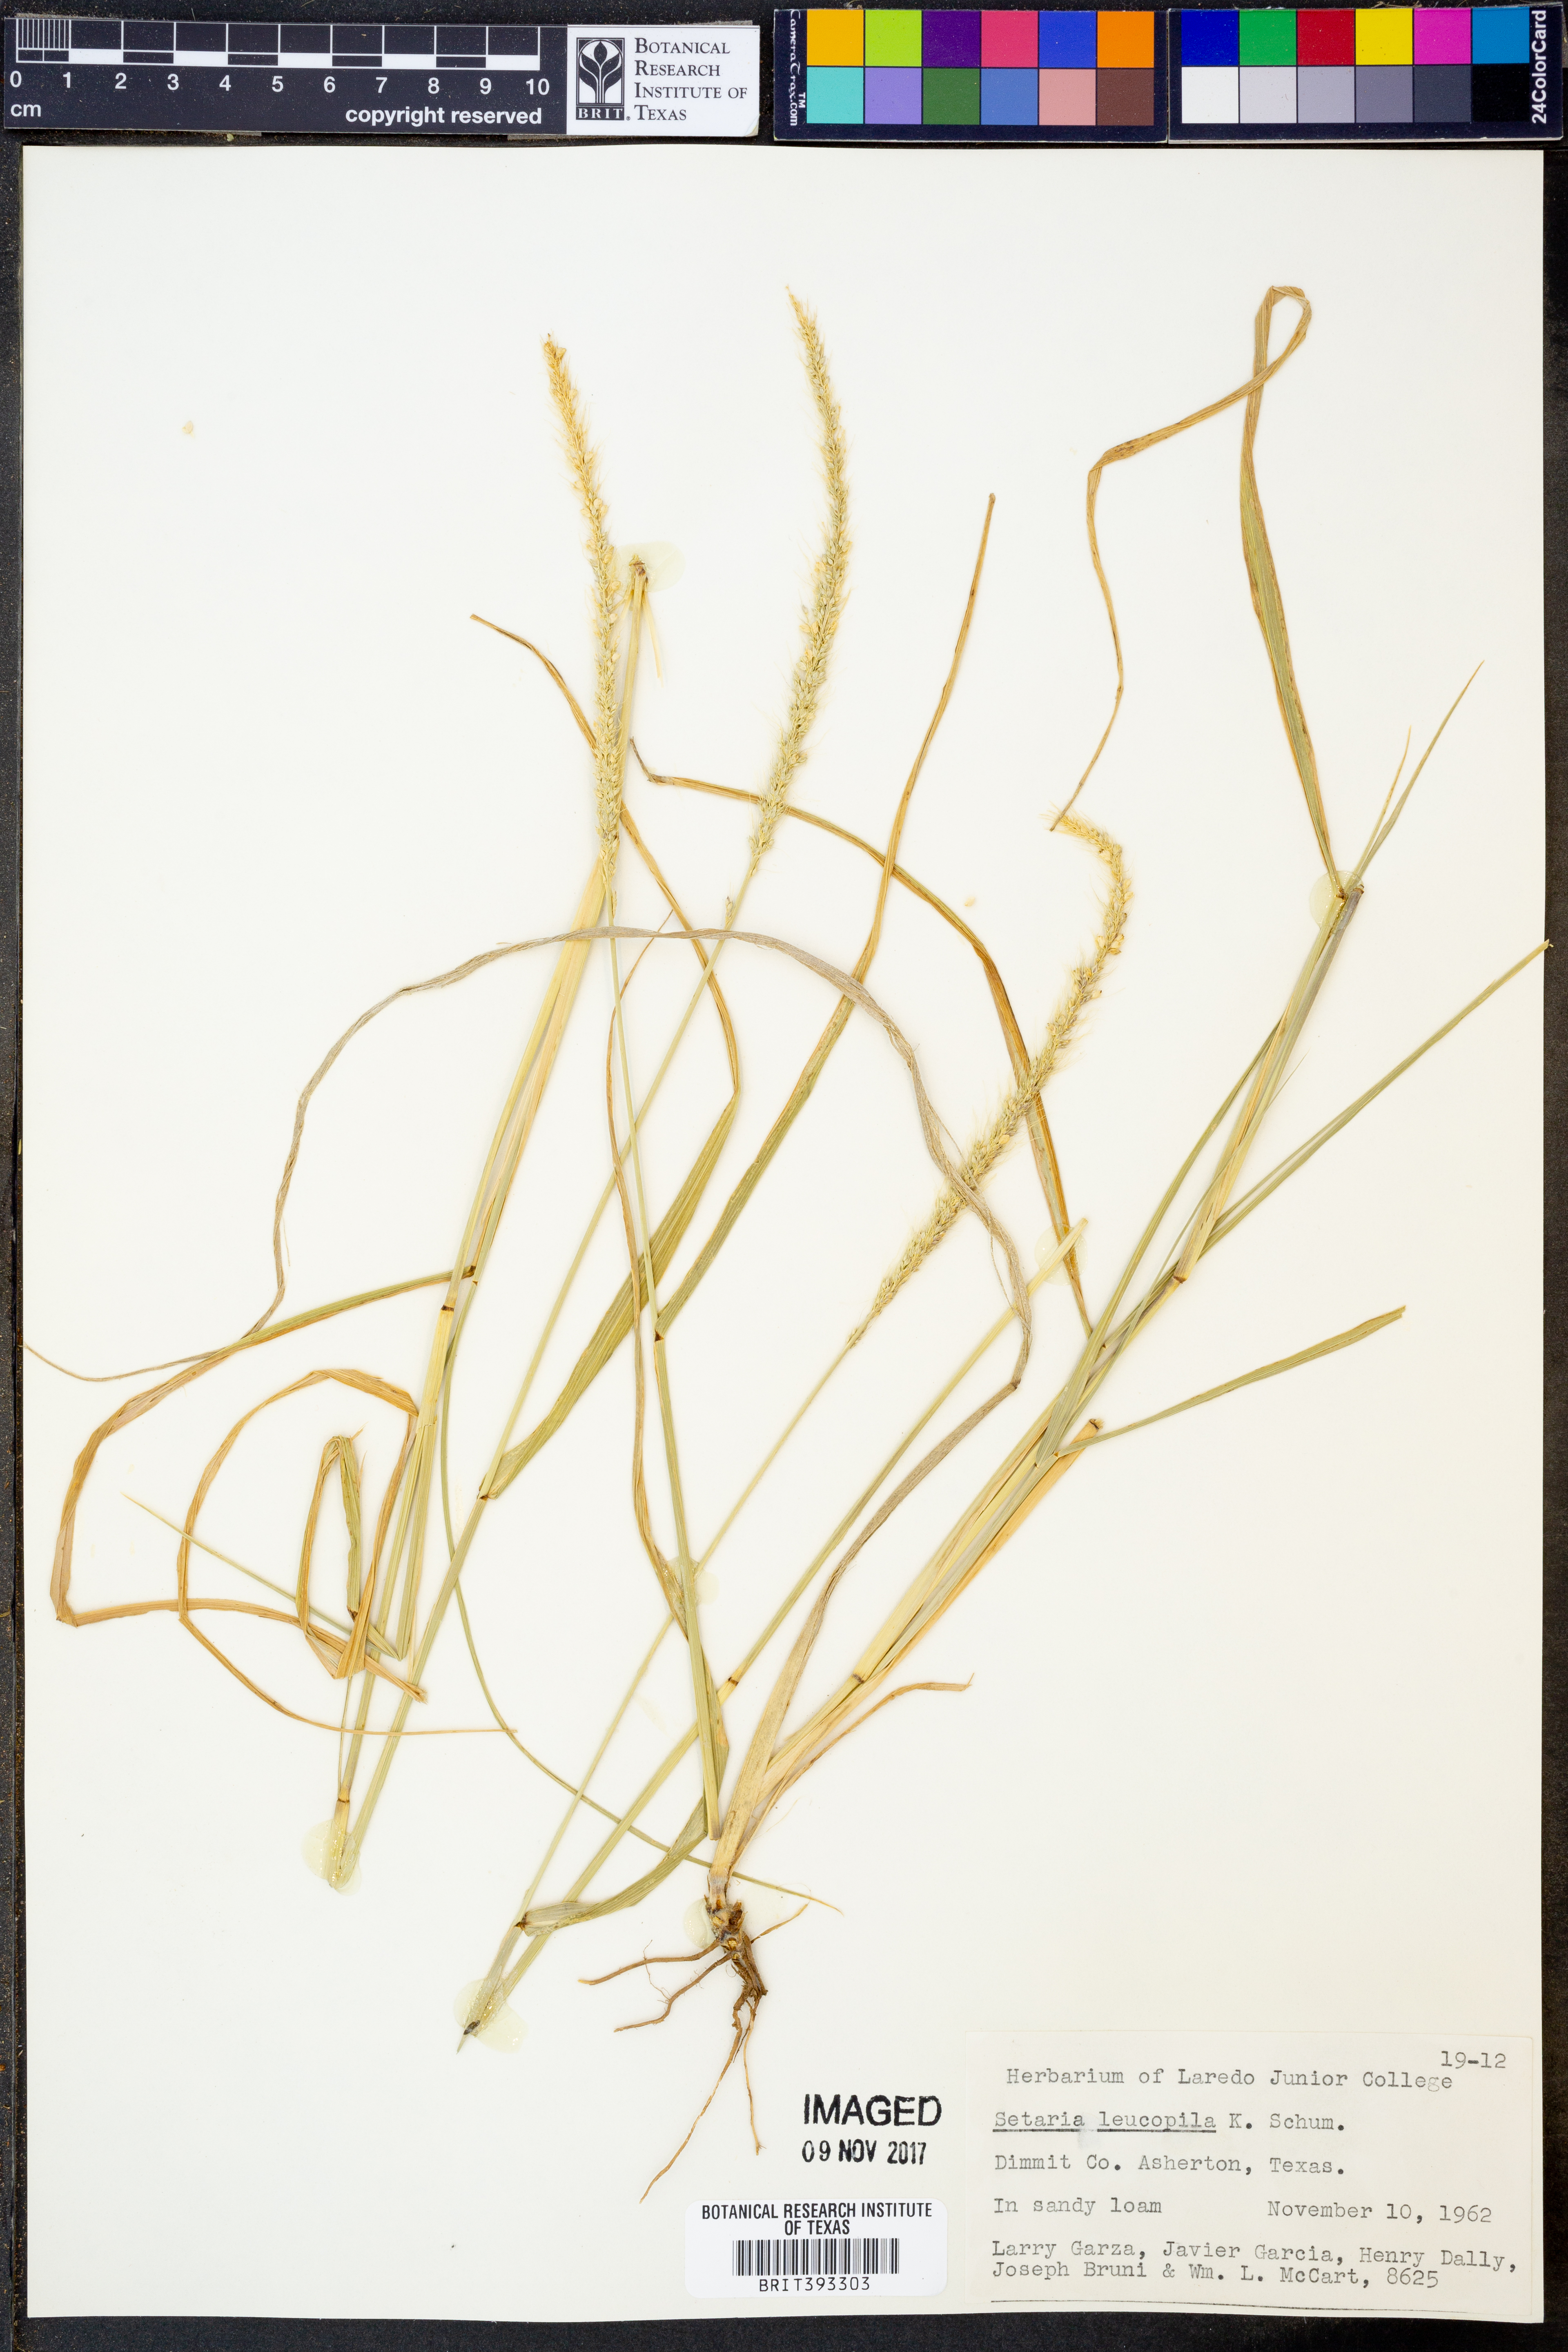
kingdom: Plantae
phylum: Tracheophyta
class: Liliopsida
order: Poales
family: Poaceae
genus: Setaria
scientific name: Setaria leucopila
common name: Plains bristle grass
